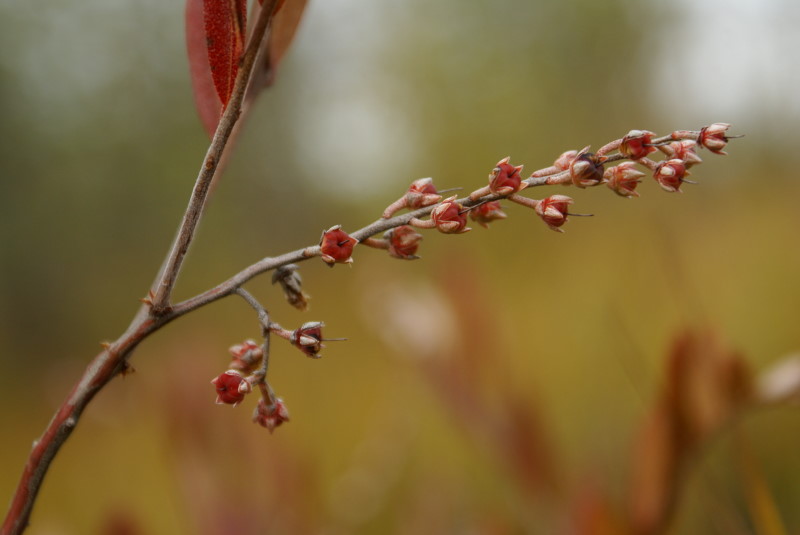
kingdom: Plantae
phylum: Tracheophyta
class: Magnoliopsida
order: Ericales
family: Ericaceae
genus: Chamaedaphne
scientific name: Chamaedaphne calyculata
